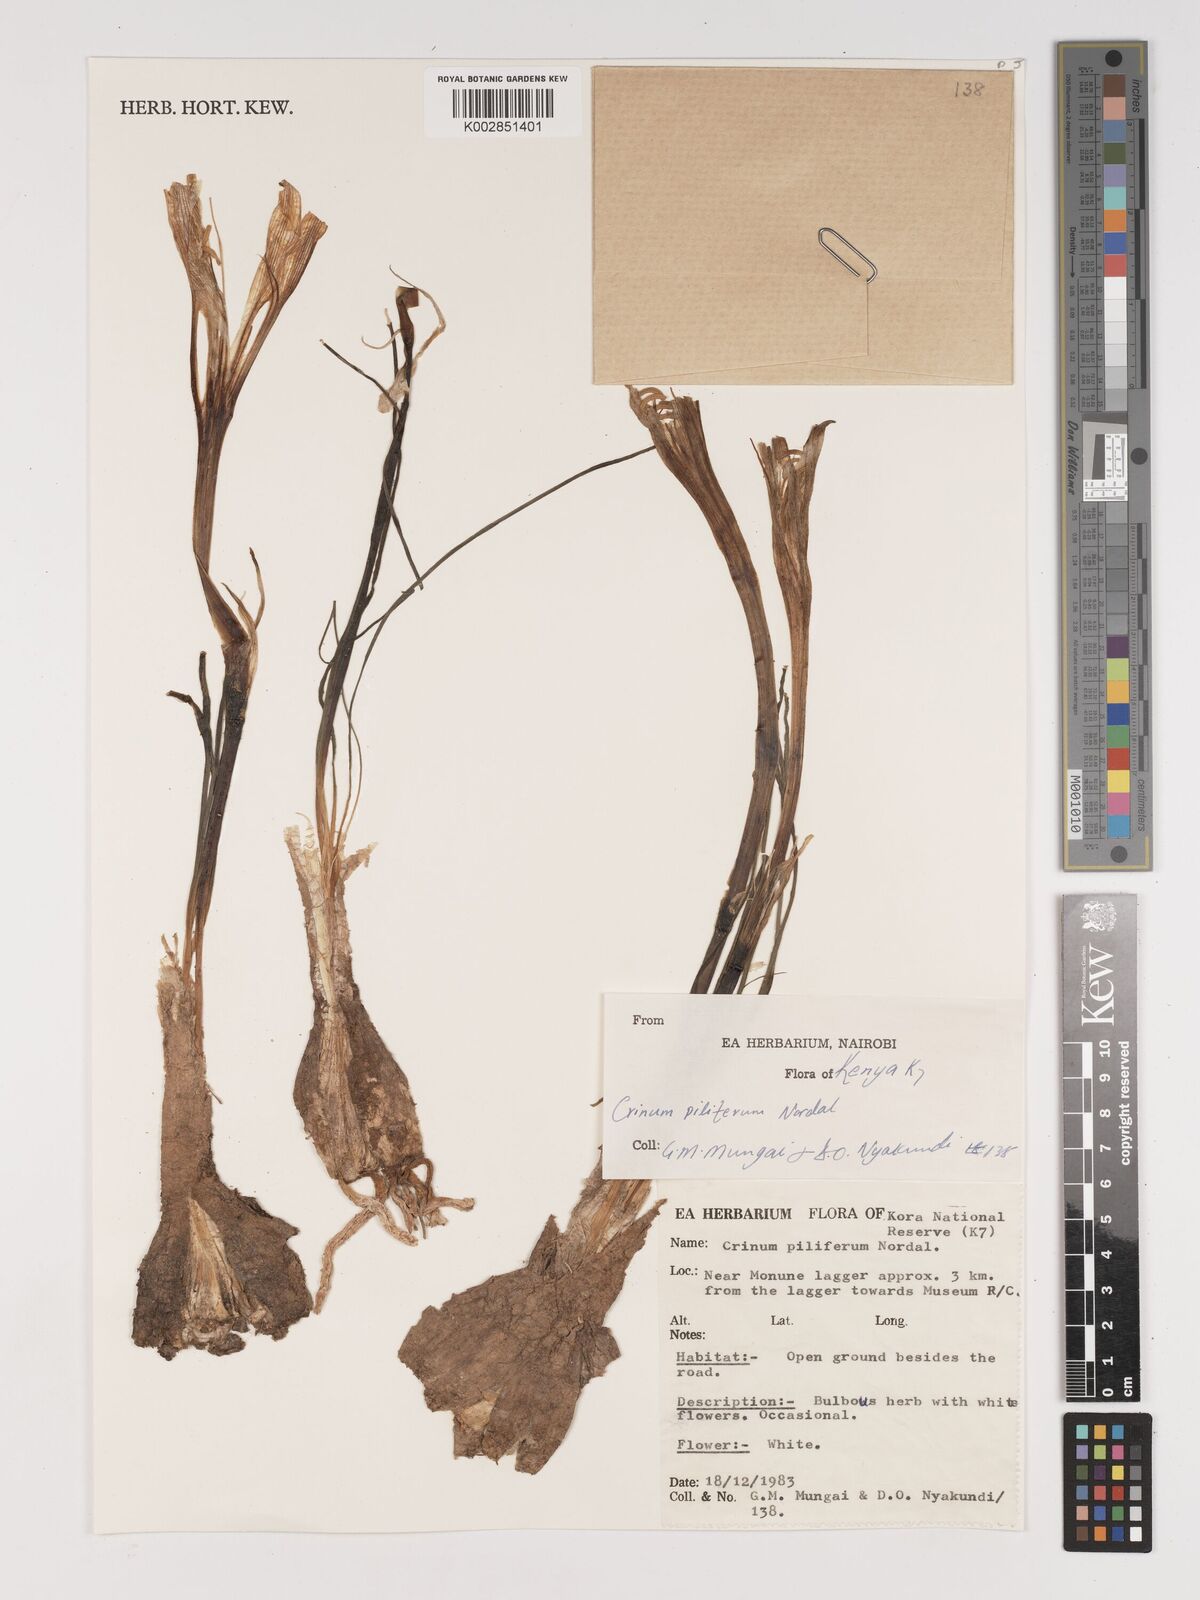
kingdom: Plantae
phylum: Tracheophyta
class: Liliopsida
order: Asparagales
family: Amaryllidaceae
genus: Crinum
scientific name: Crinum piliferum
